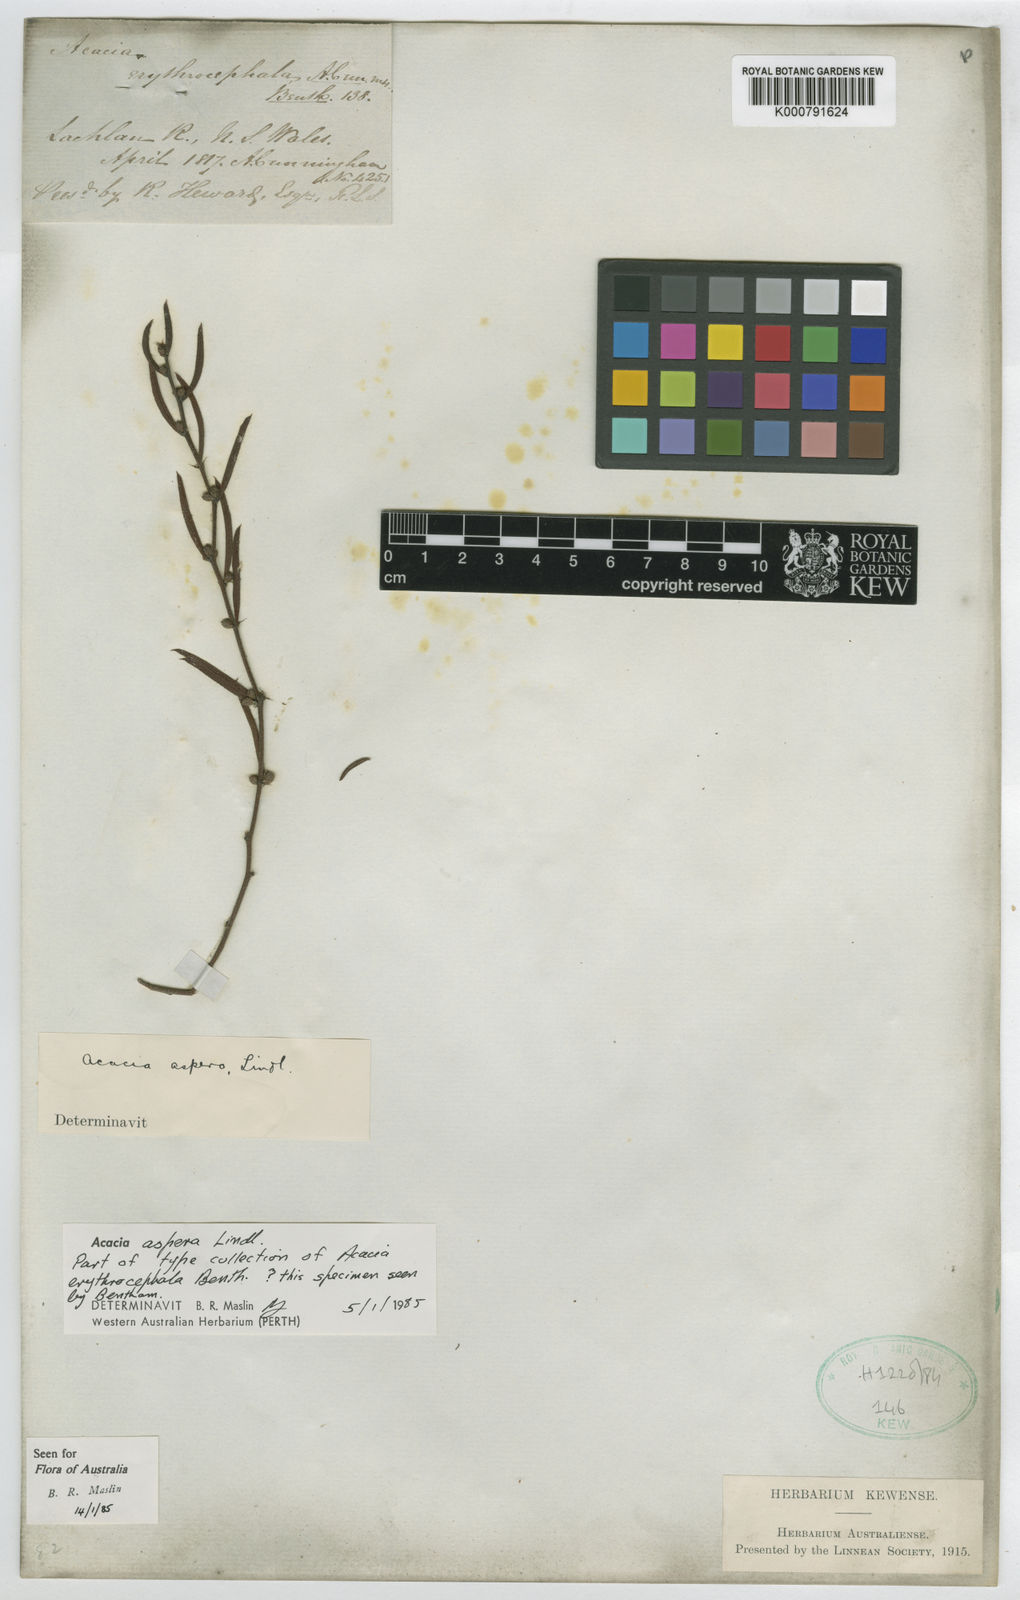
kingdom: Plantae
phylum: Tracheophyta
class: Magnoliopsida
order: Fabales
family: Fabaceae
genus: Acacia
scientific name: Acacia aspera
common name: Rough wattle
